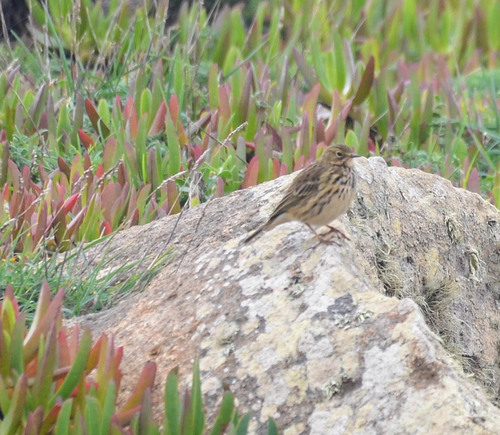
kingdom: Animalia
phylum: Chordata
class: Aves
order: Passeriformes
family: Motacillidae
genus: Anthus
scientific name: Anthus pratensis
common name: Meadow pipit
